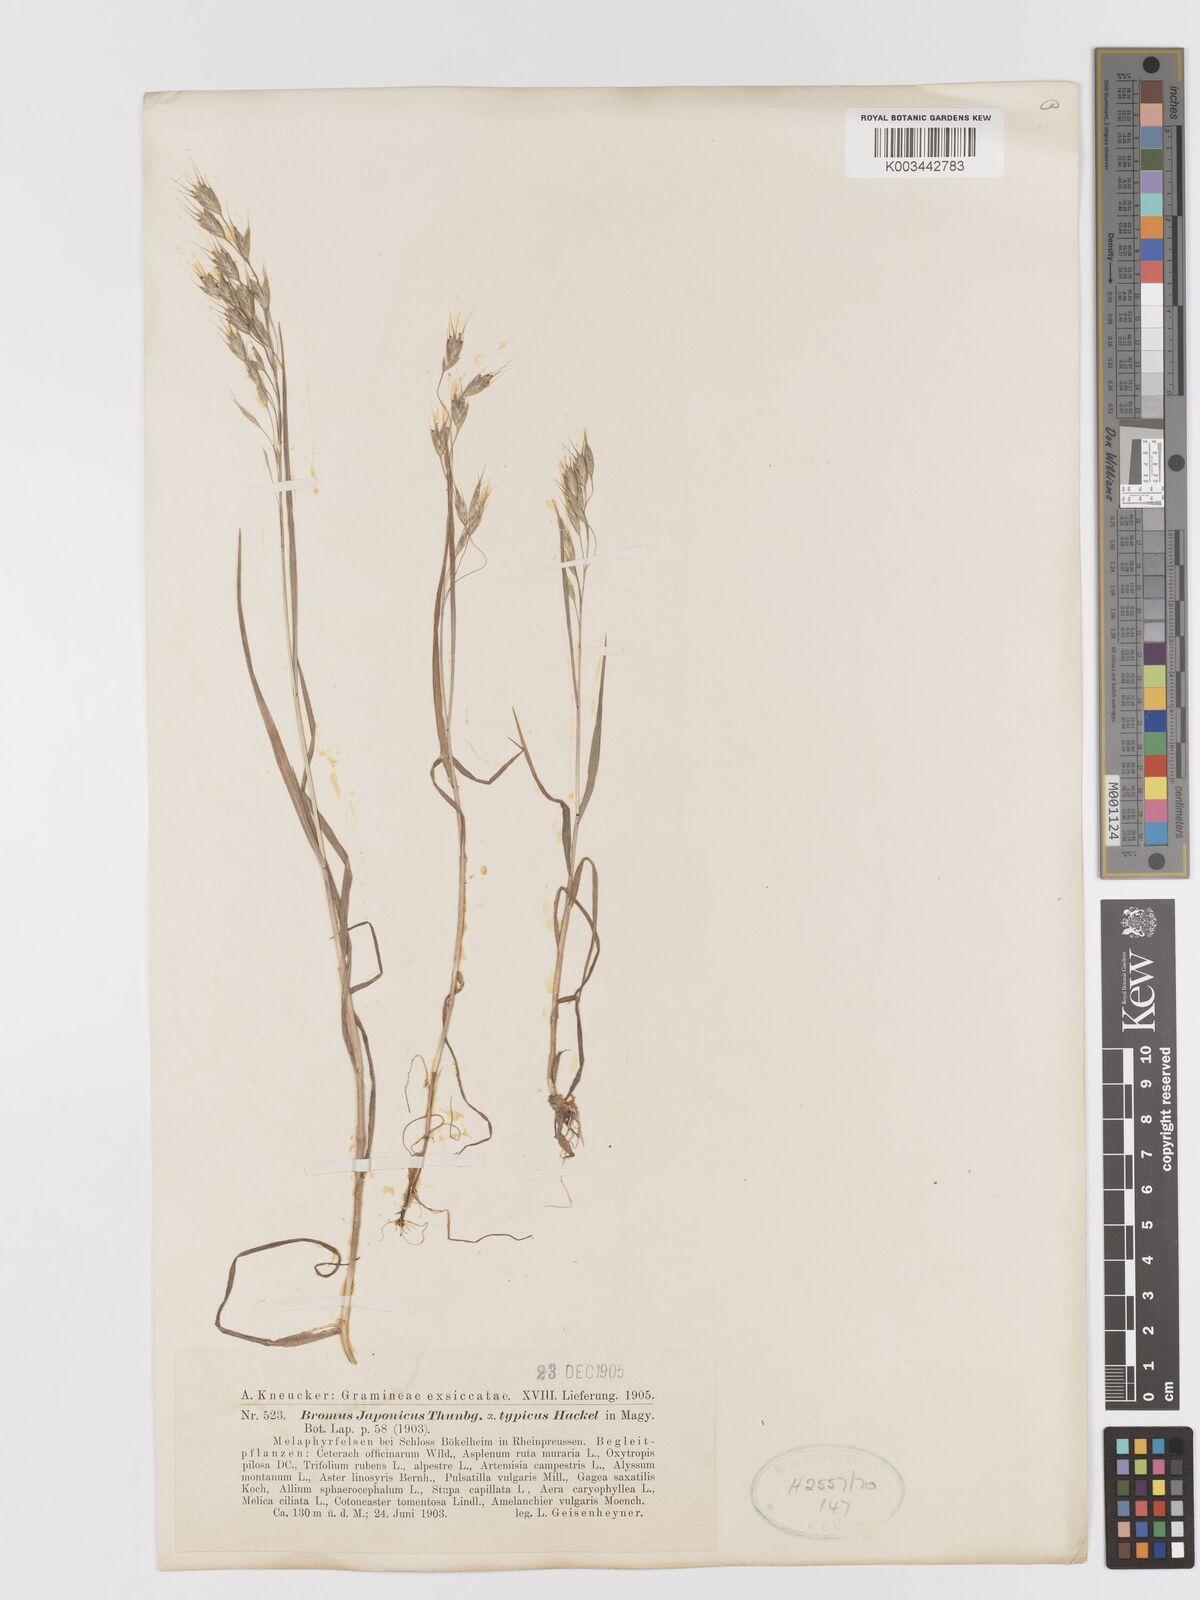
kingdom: Plantae
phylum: Tracheophyta
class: Liliopsida
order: Poales
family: Poaceae
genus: Bromus
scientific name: Bromus japonicus
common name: Japanese brome
